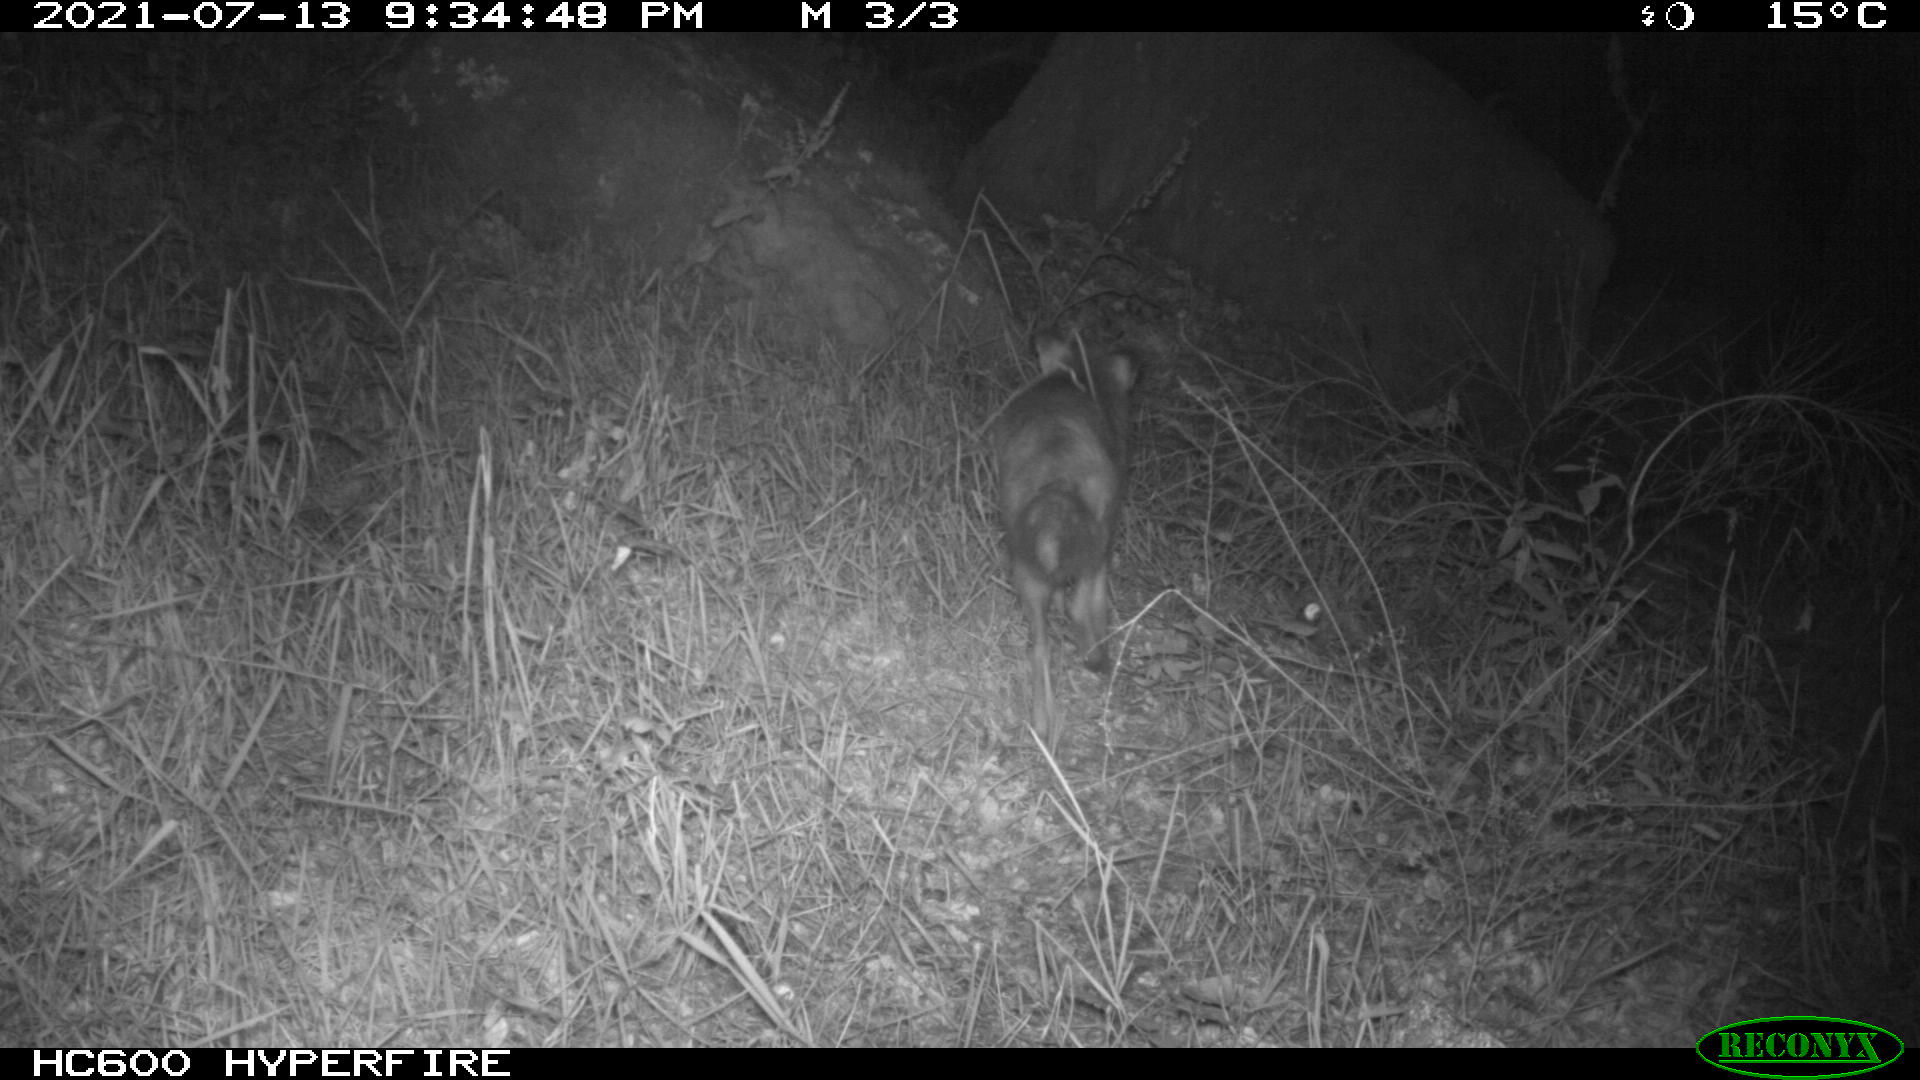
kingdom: Animalia
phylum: Chordata
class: Mammalia
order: Carnivora
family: Canidae
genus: Vulpes
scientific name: Vulpes vulpes
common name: Red fox
